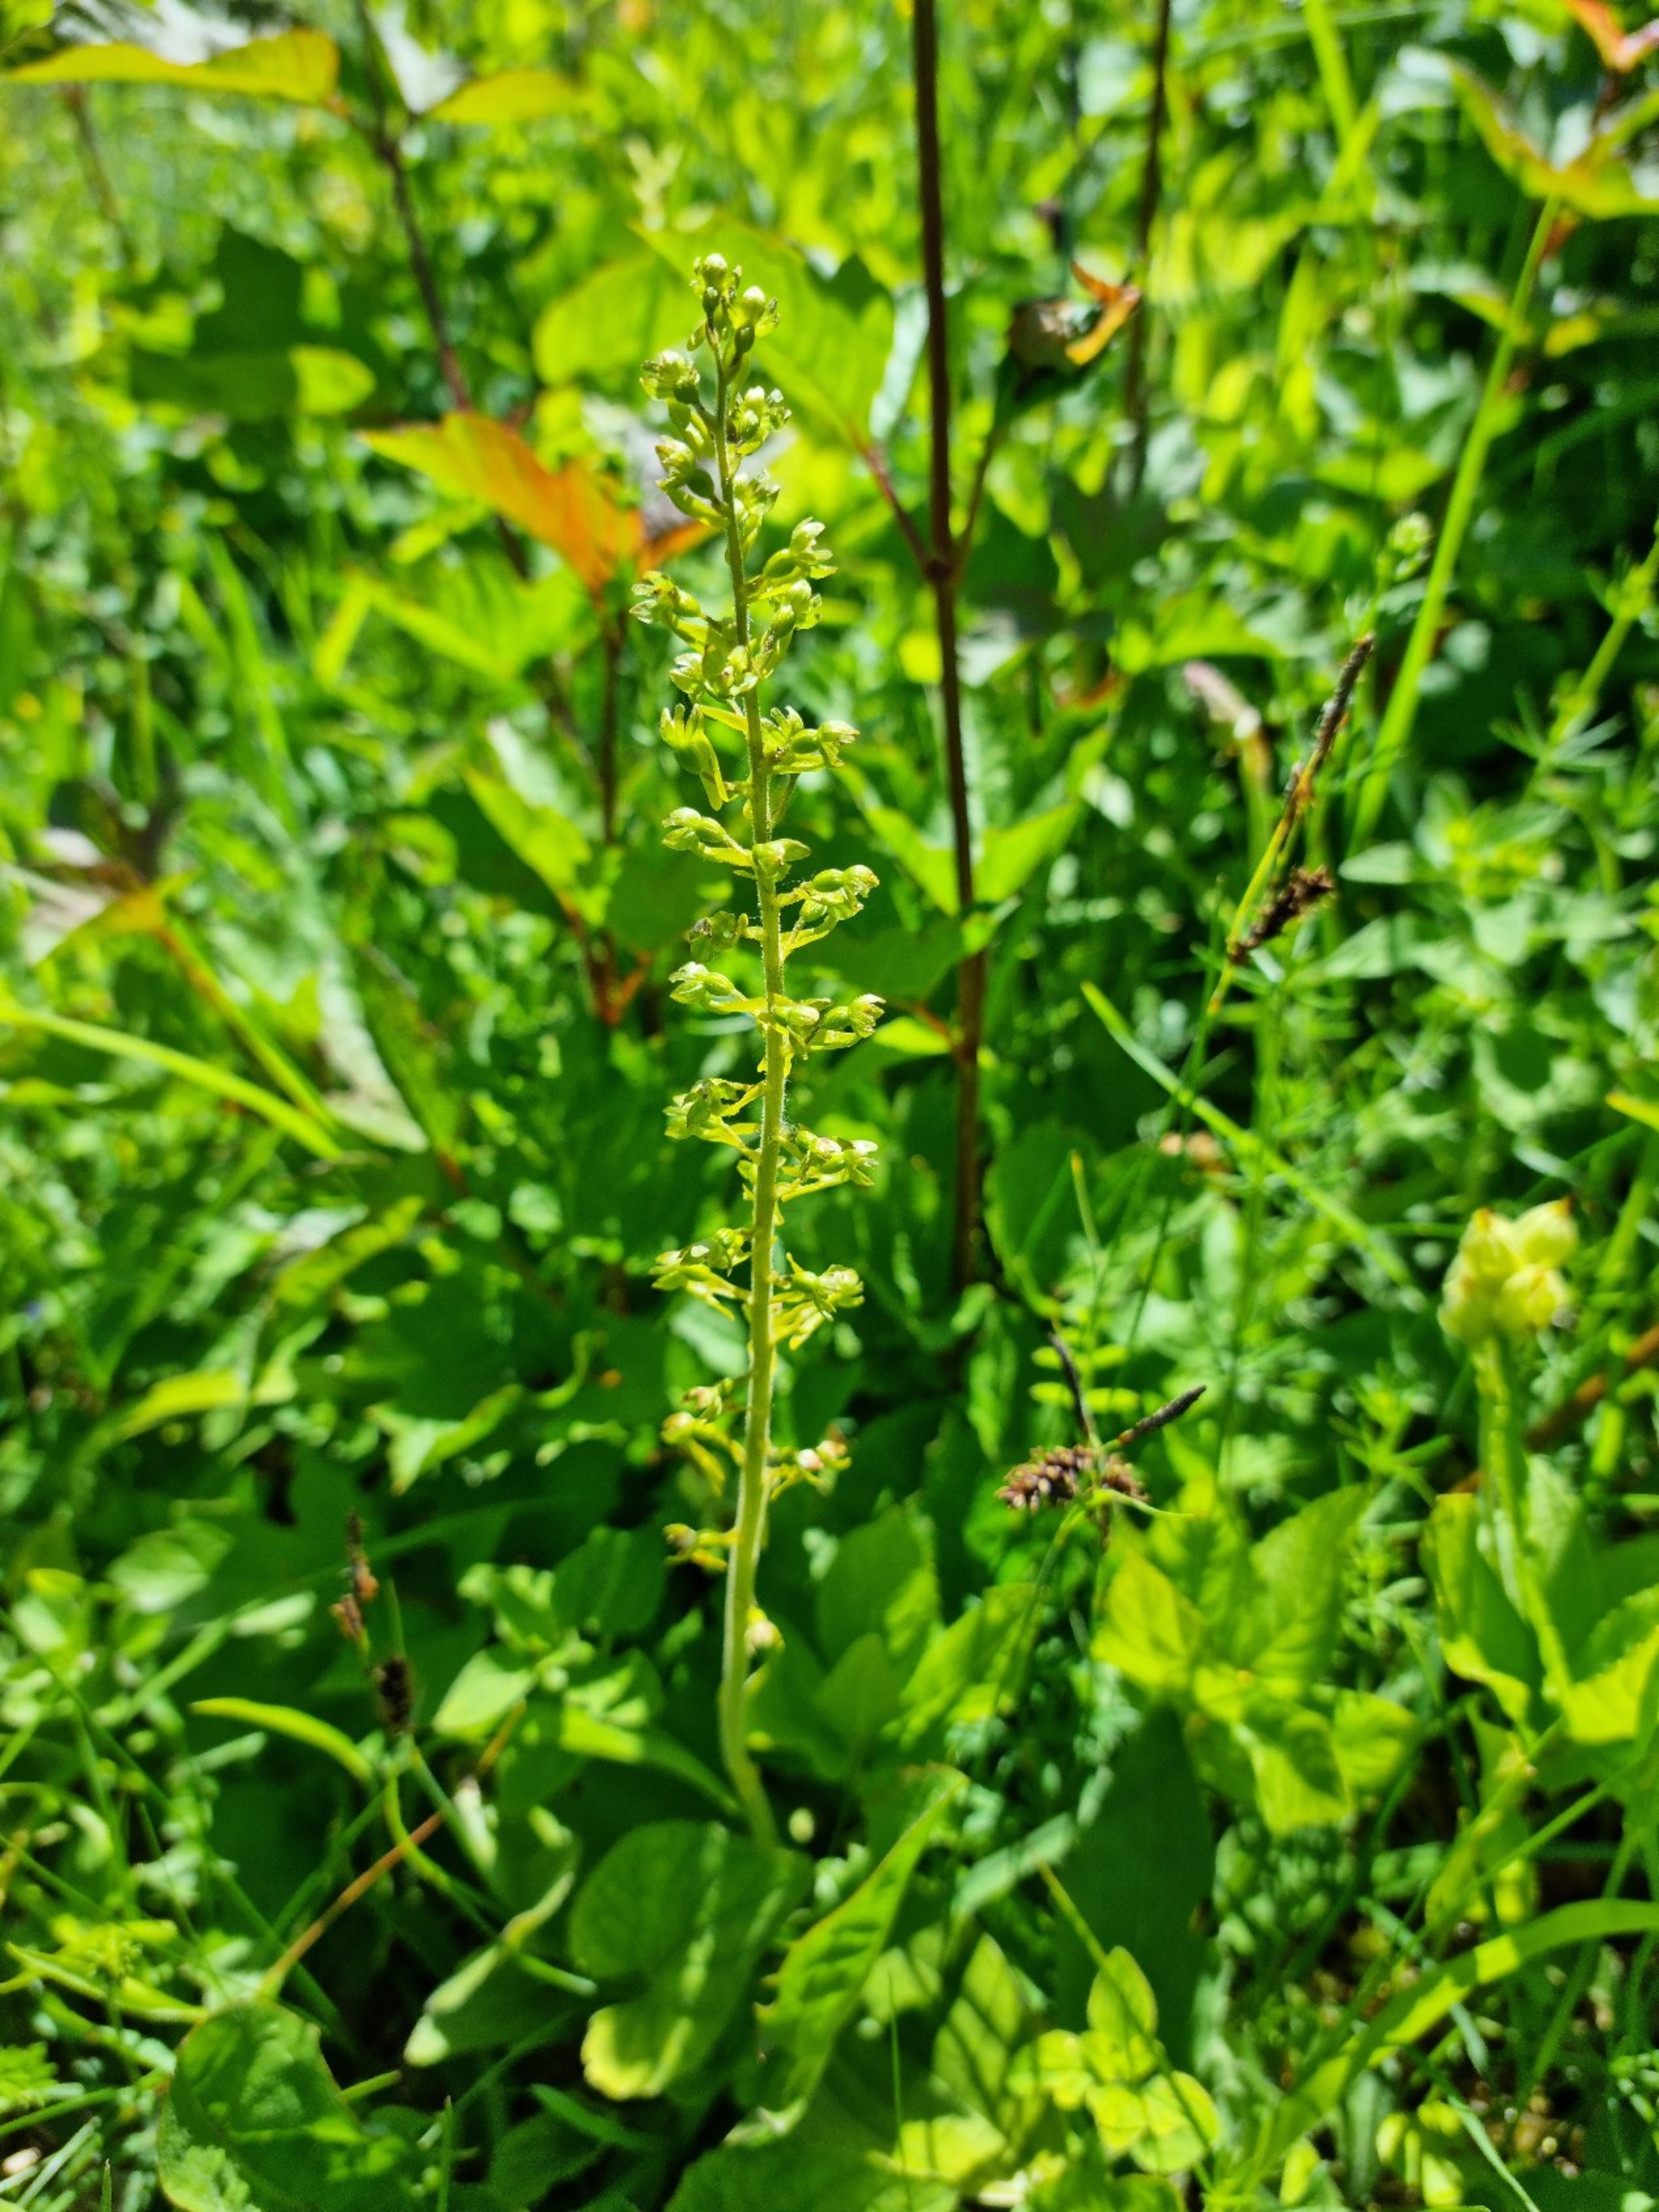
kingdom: Plantae
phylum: Tracheophyta
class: Liliopsida
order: Asparagales
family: Orchidaceae
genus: Neottia
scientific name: Neottia ovata
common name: Ægbladet fliglæbe
